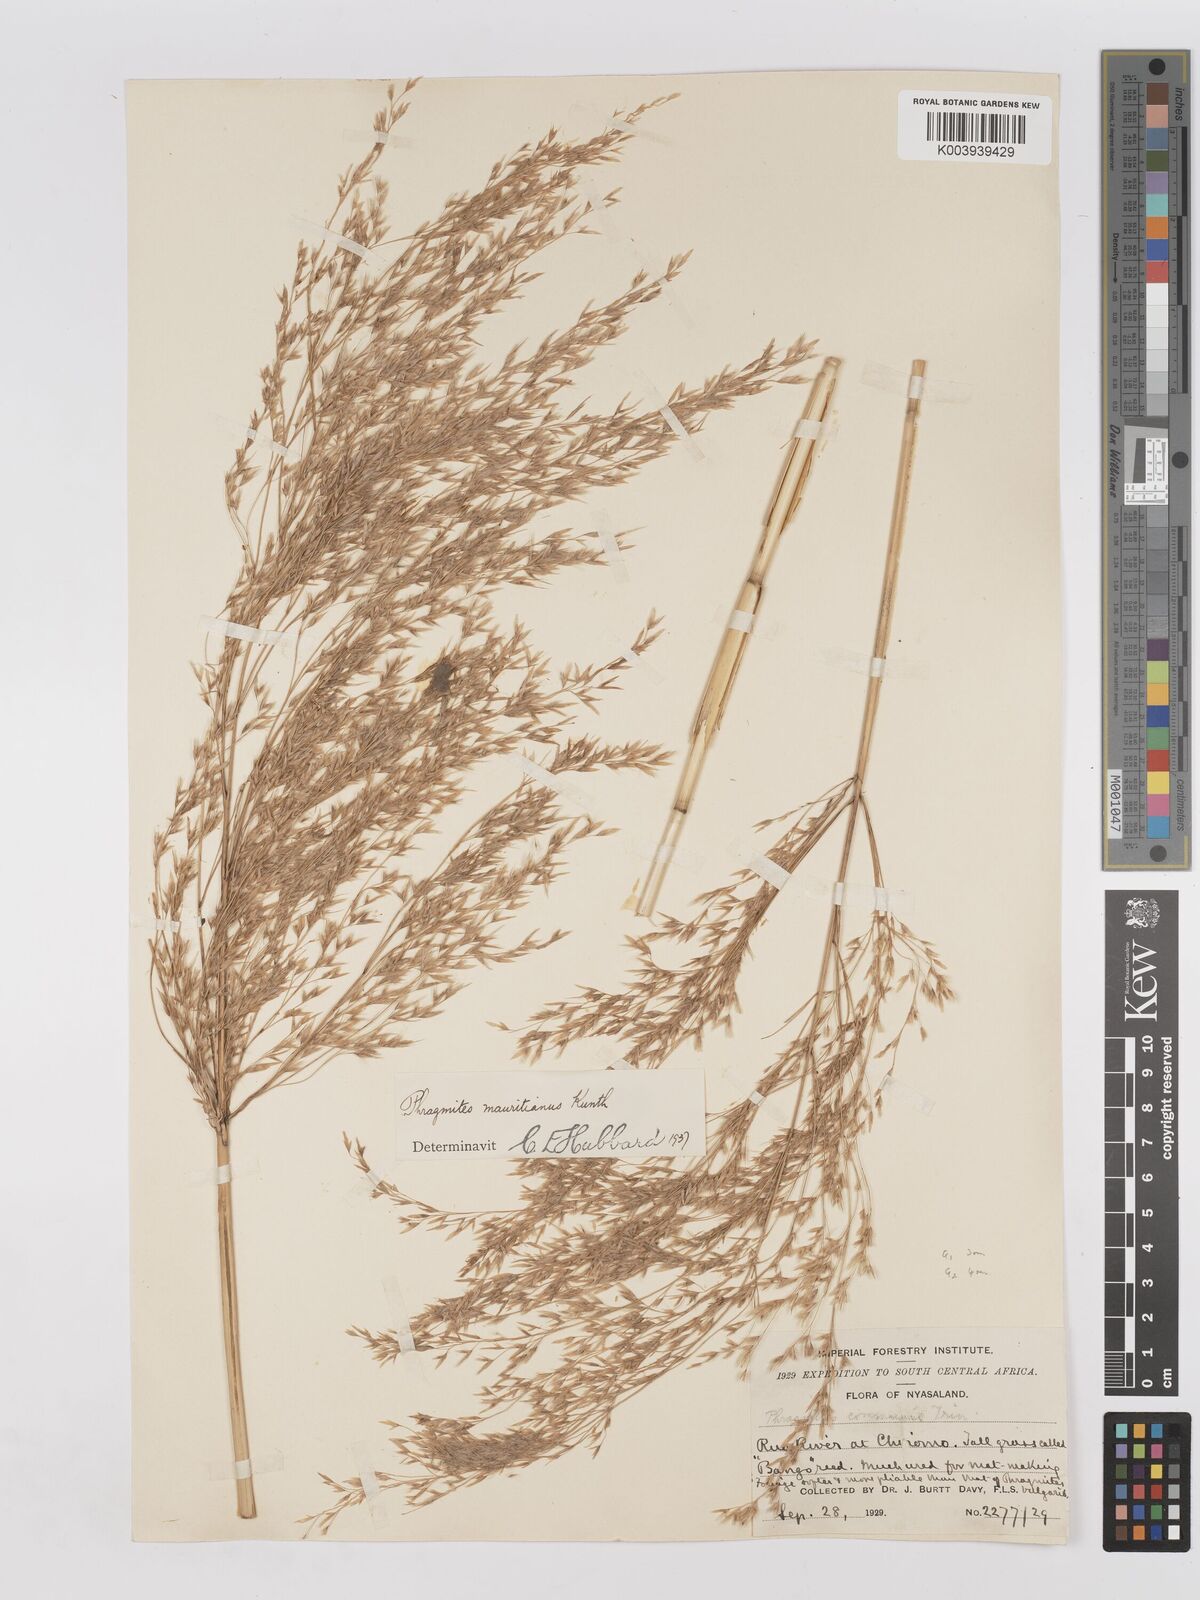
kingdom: Plantae
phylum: Tracheophyta
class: Liliopsida
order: Poales
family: Poaceae
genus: Phragmites
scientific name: Phragmites mauritianus
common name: Reed grass
